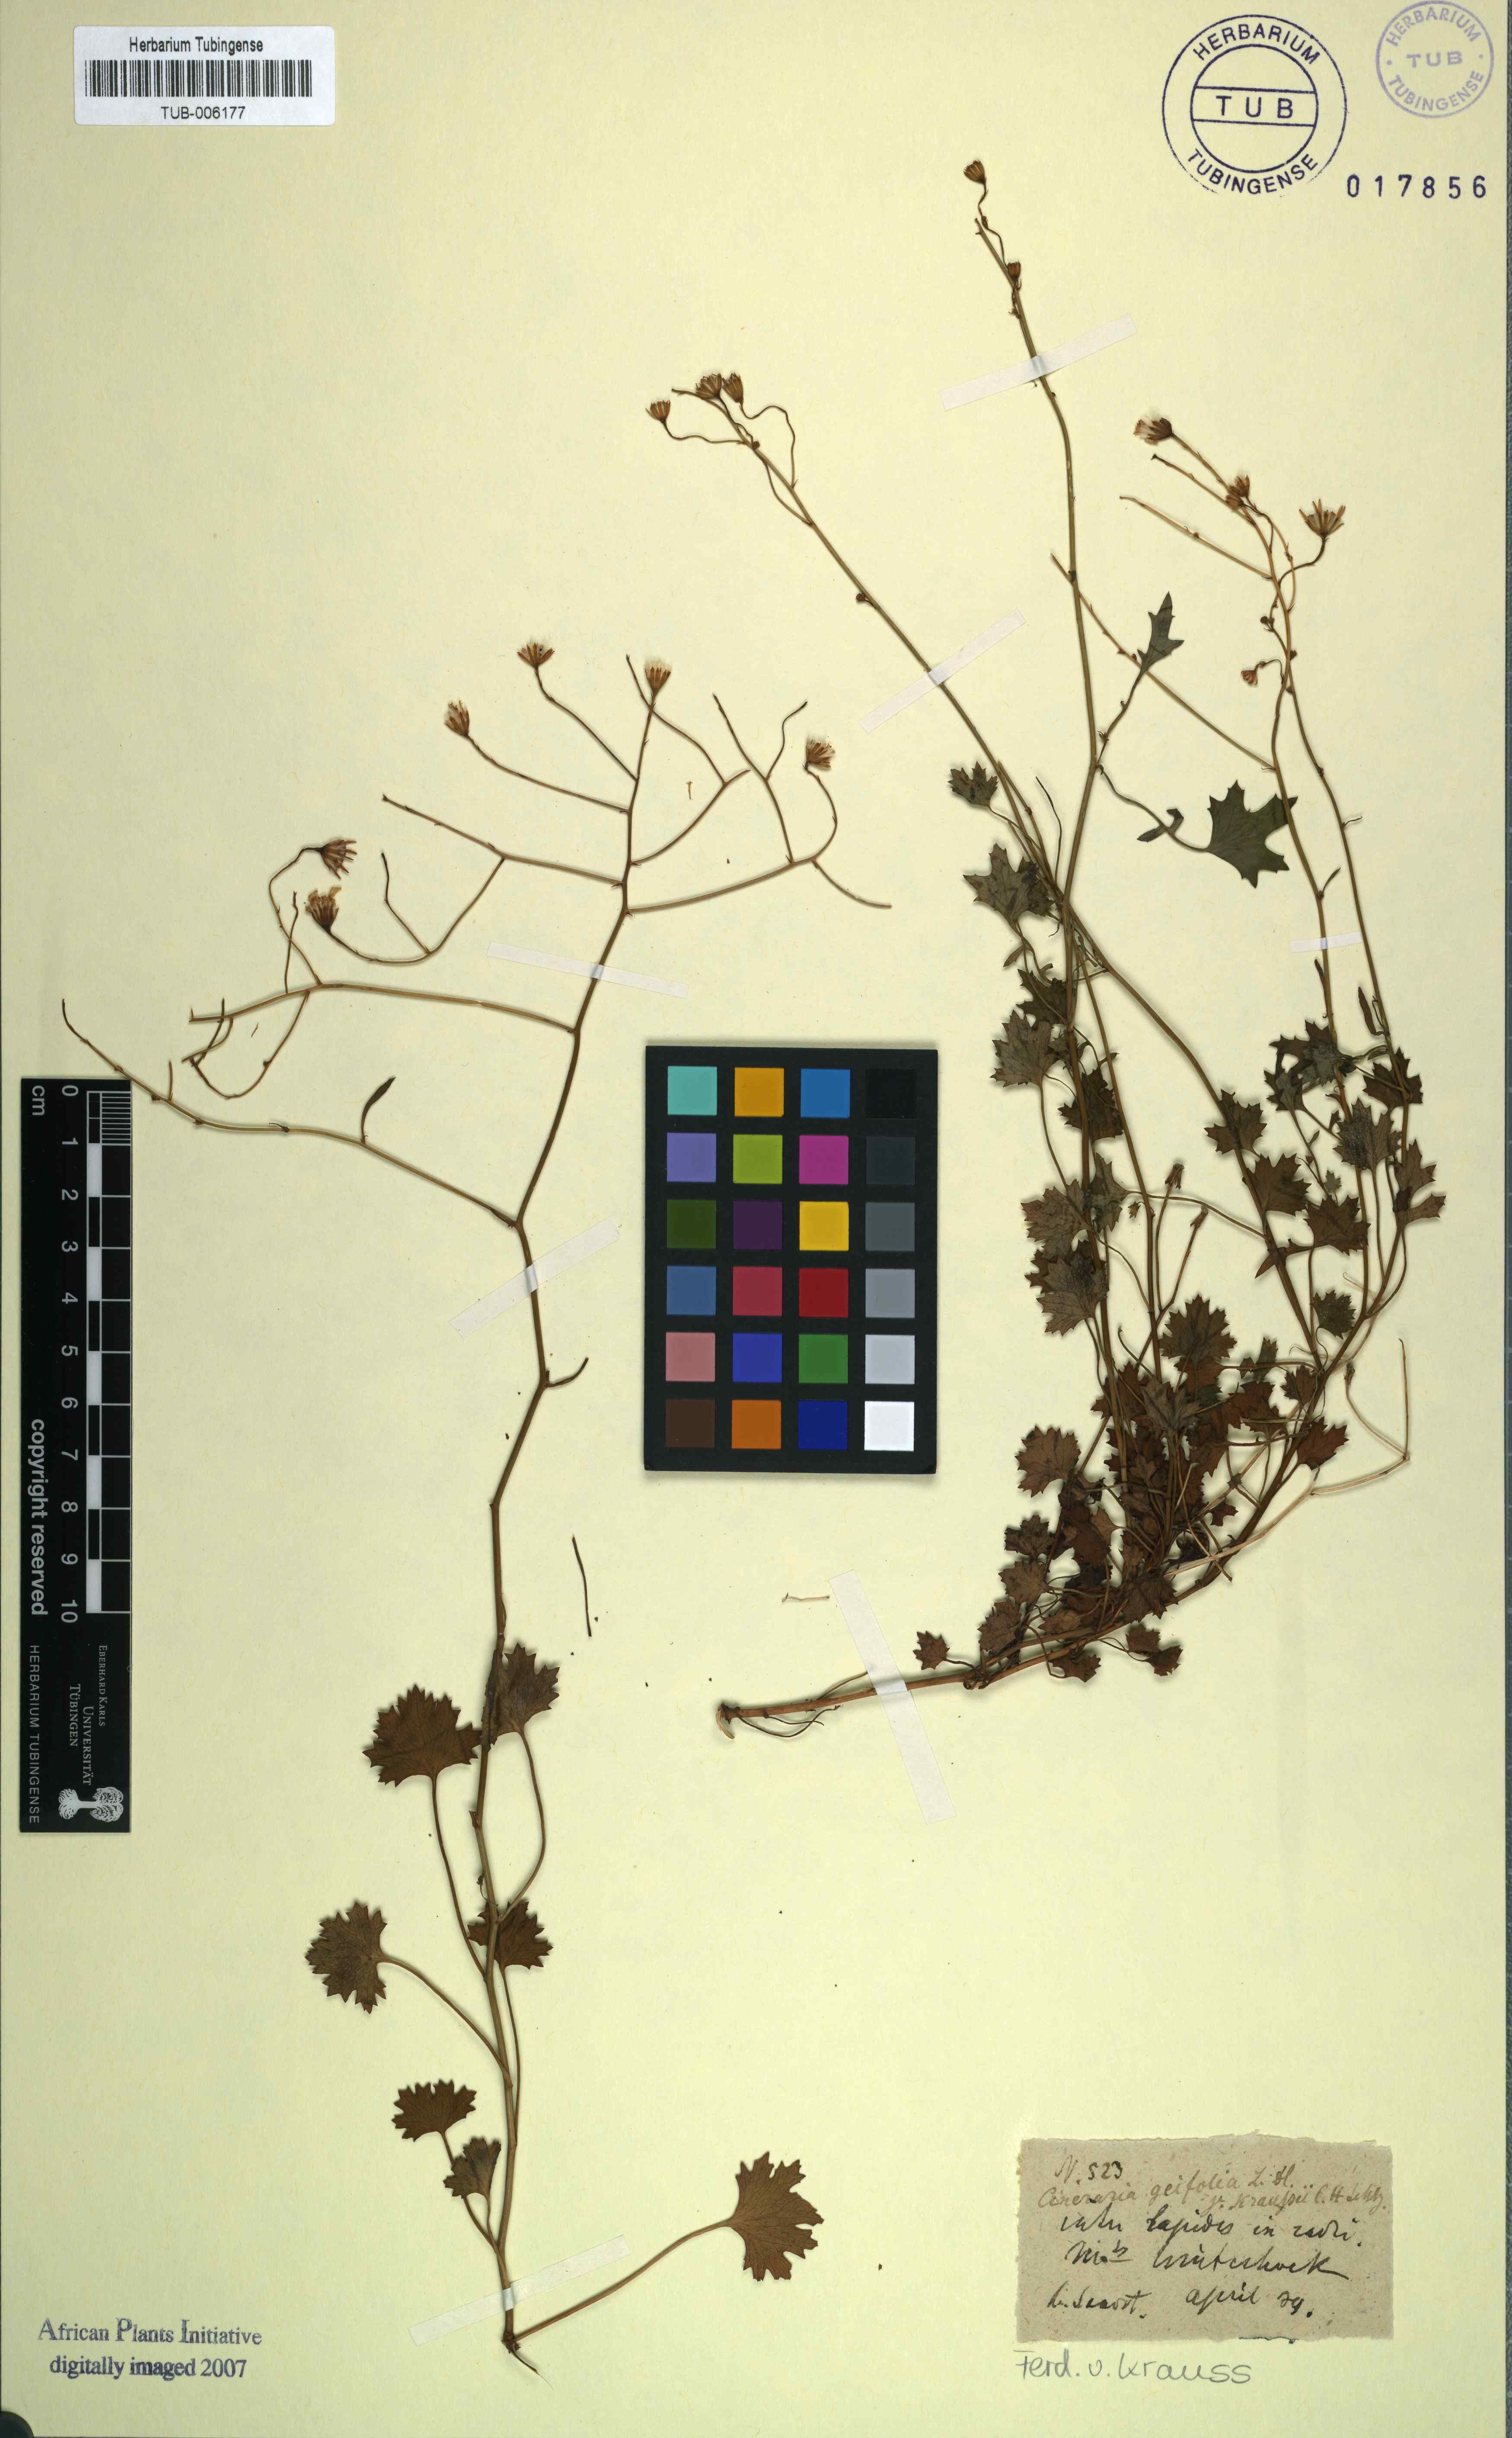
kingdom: Plantae
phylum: Tracheophyta
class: Magnoliopsida
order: Asterales
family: Asteraceae
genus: Cineraria
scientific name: Cineraria geifolia
